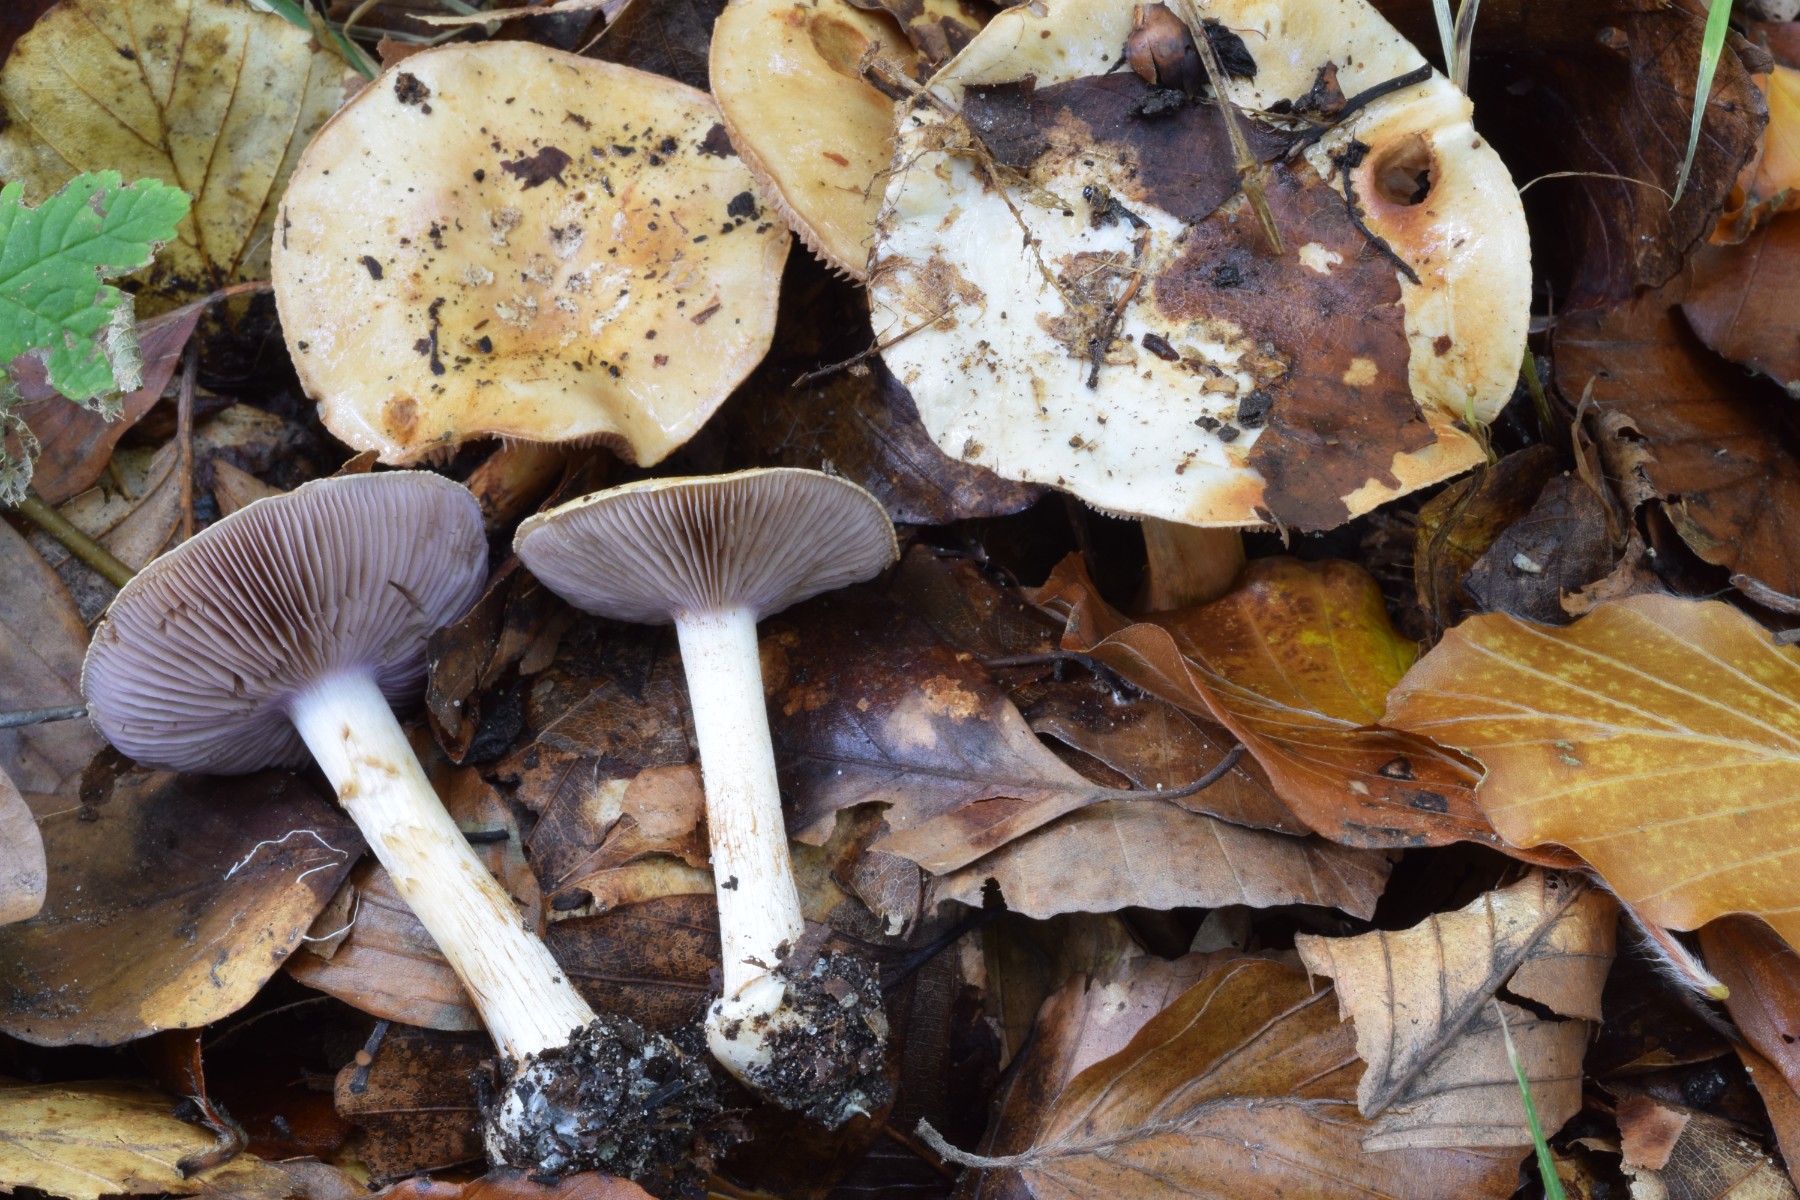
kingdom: Fungi
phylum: Basidiomycota
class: Agaricomycetes
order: Agaricales
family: Cortinariaceae
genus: Calonarius
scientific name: Calonarius platypus
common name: platfodet slørhat
